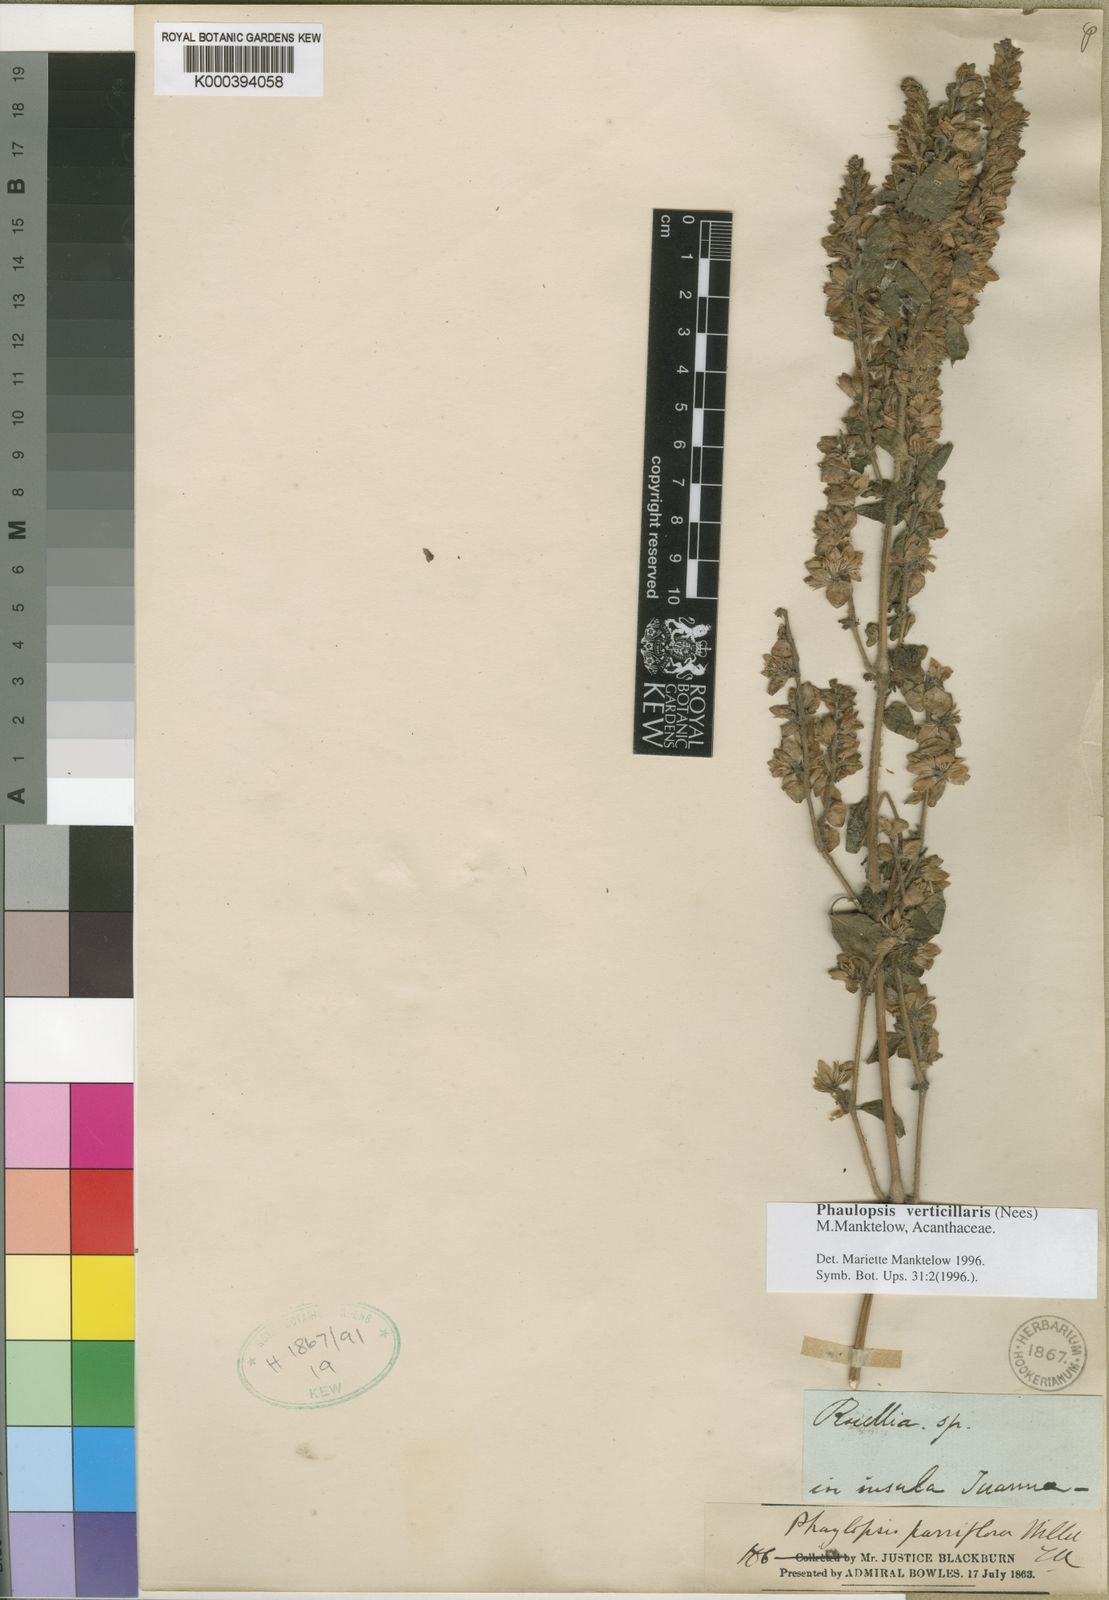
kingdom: Plantae
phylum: Tracheophyta
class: Magnoliopsida
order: Lamiales
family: Acanthaceae
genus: Phaulopsis
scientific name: Phaulopsis verticillaris
